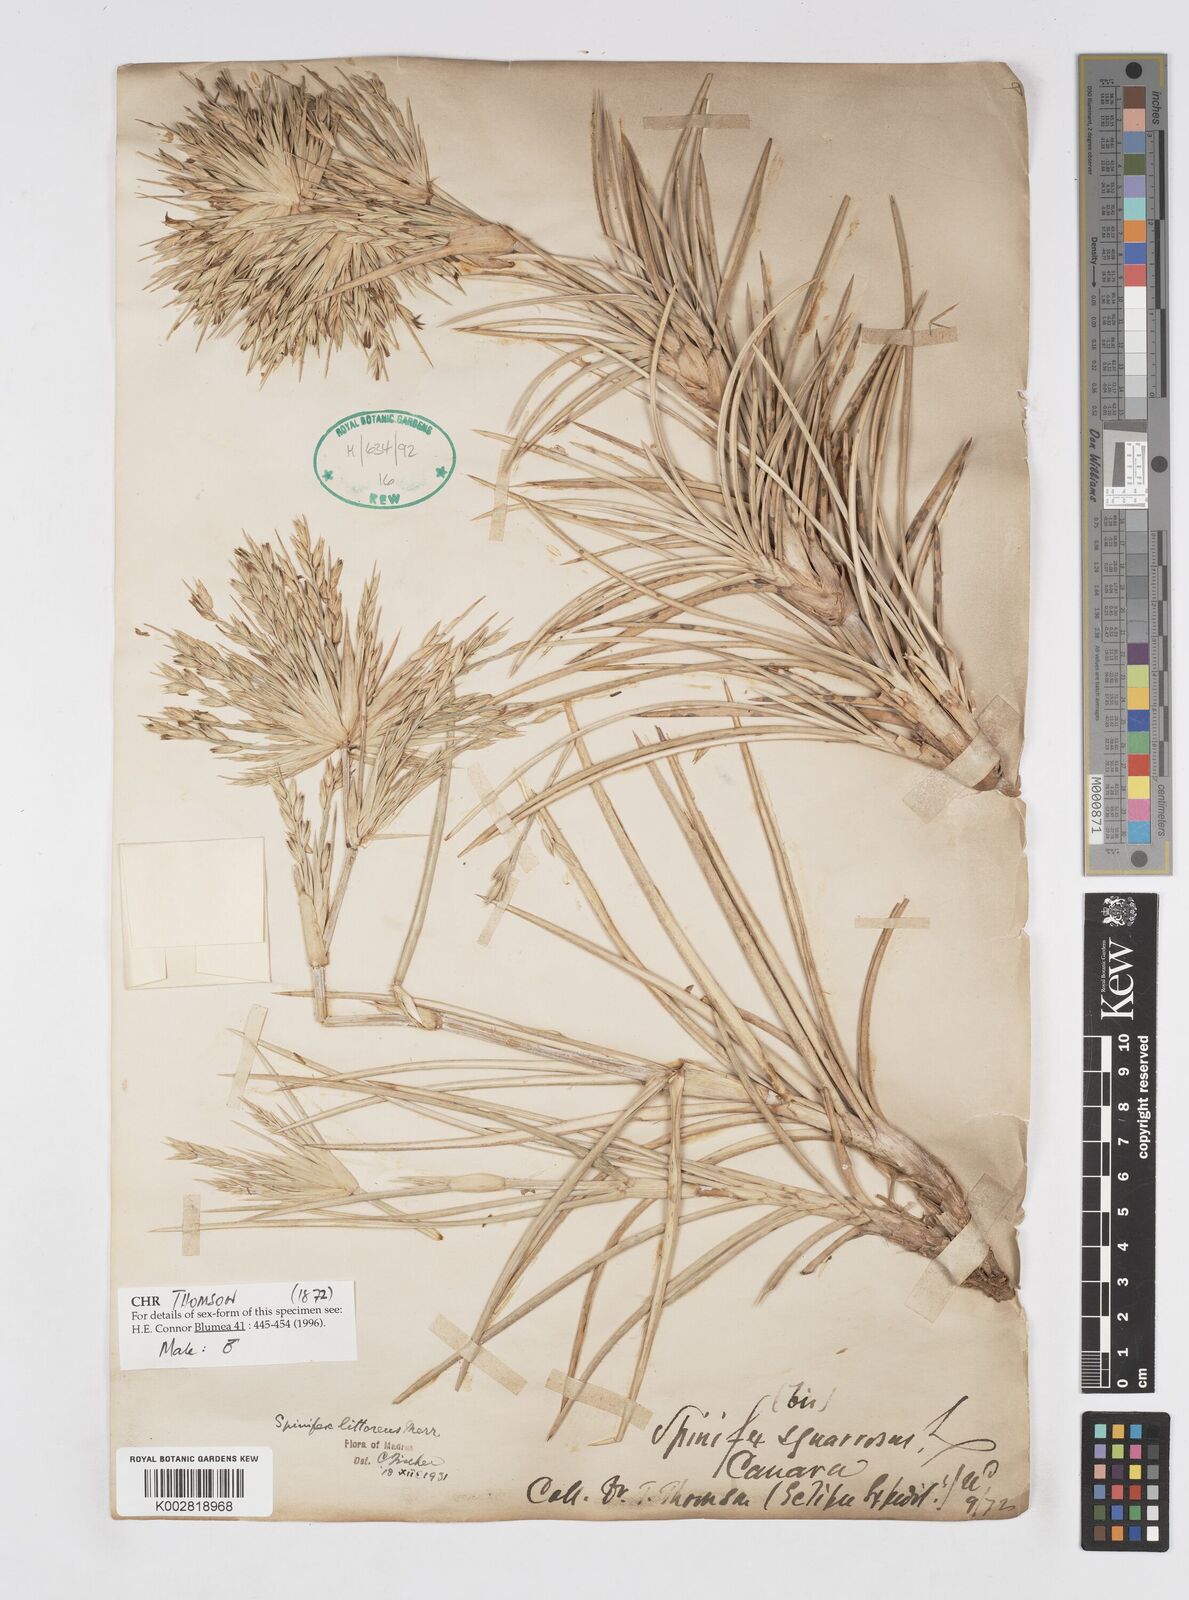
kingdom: Plantae
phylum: Tracheophyta
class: Liliopsida
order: Poales
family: Poaceae
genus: Spinifex
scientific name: Spinifex littoreus
